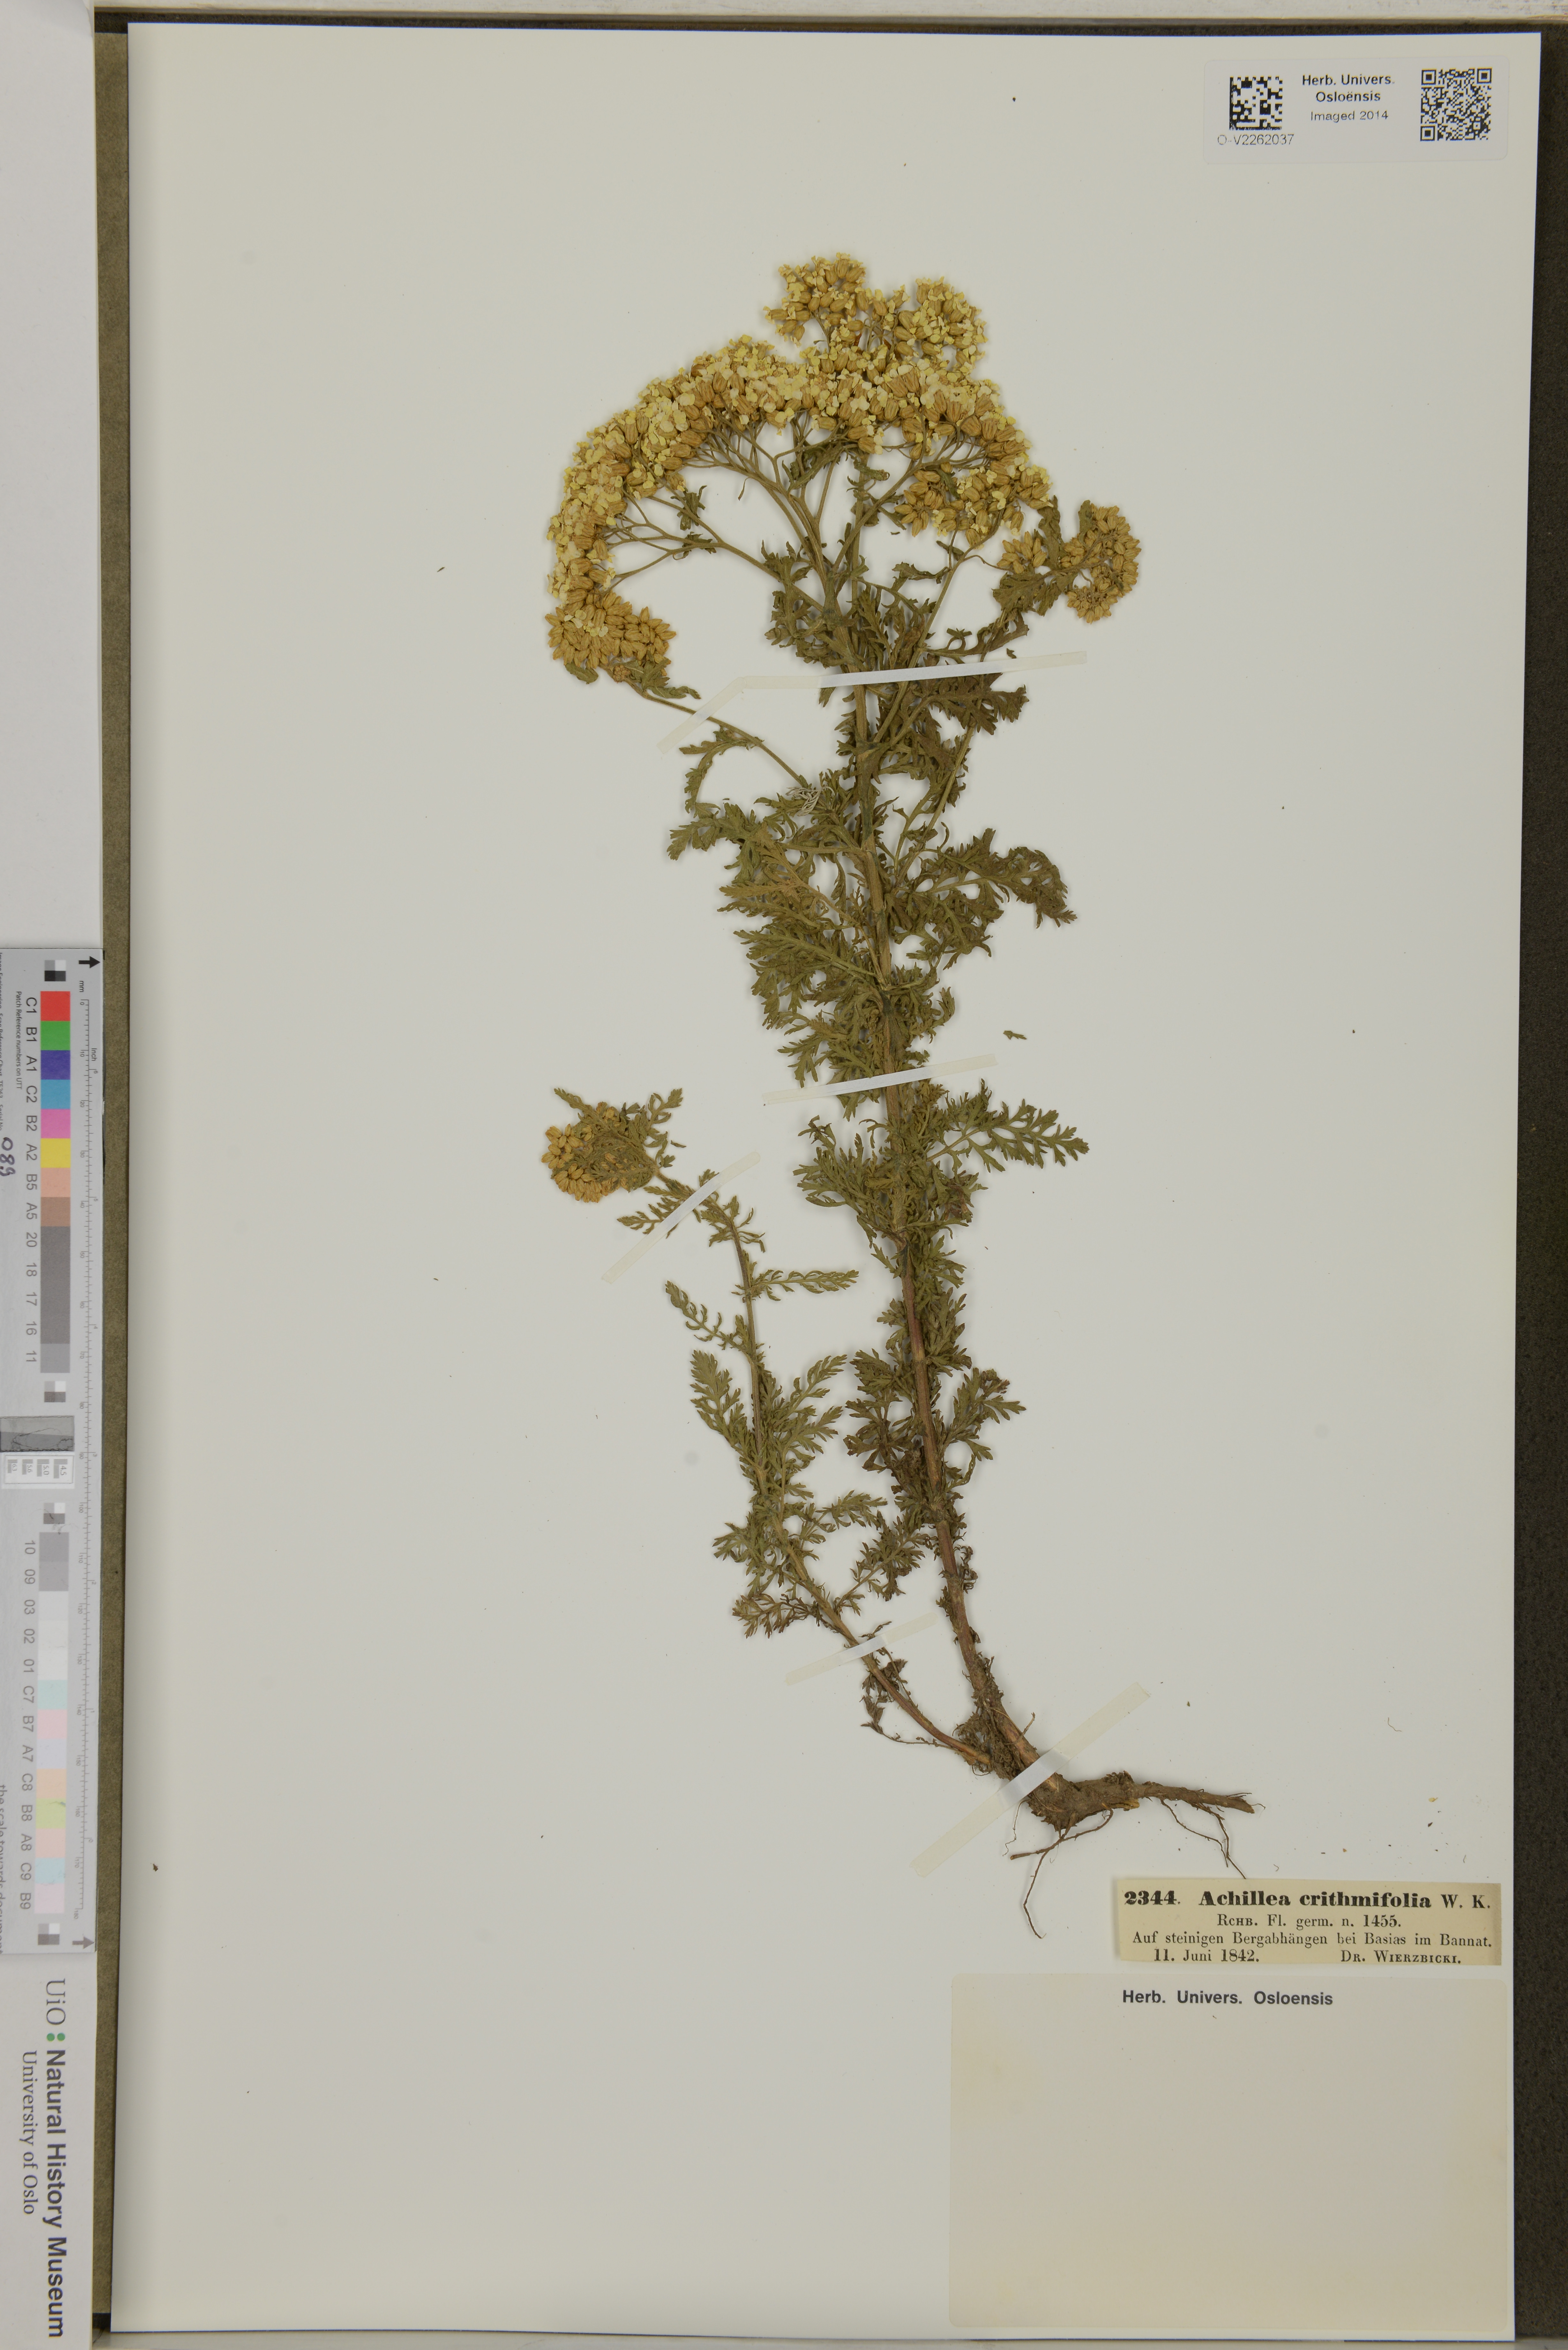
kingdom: Plantae
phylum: Tracheophyta
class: Magnoliopsida
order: Asterales
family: Asteraceae
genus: Achillea
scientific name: Achillea crithmifolia
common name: Yarrow
